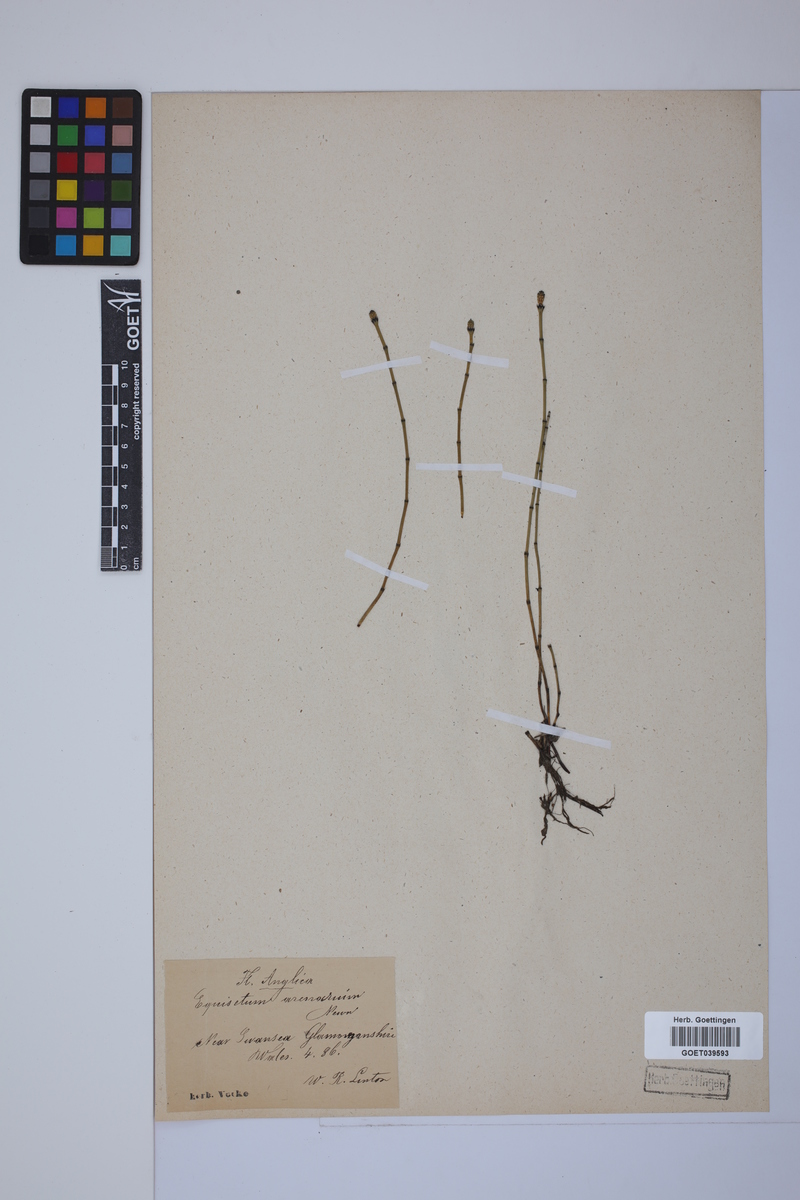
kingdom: Plantae
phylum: Tracheophyta
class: Polypodiopsida
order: Equisetales
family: Equisetaceae
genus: Equisetum
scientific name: Equisetum variegatum
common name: Variegated horsetail
